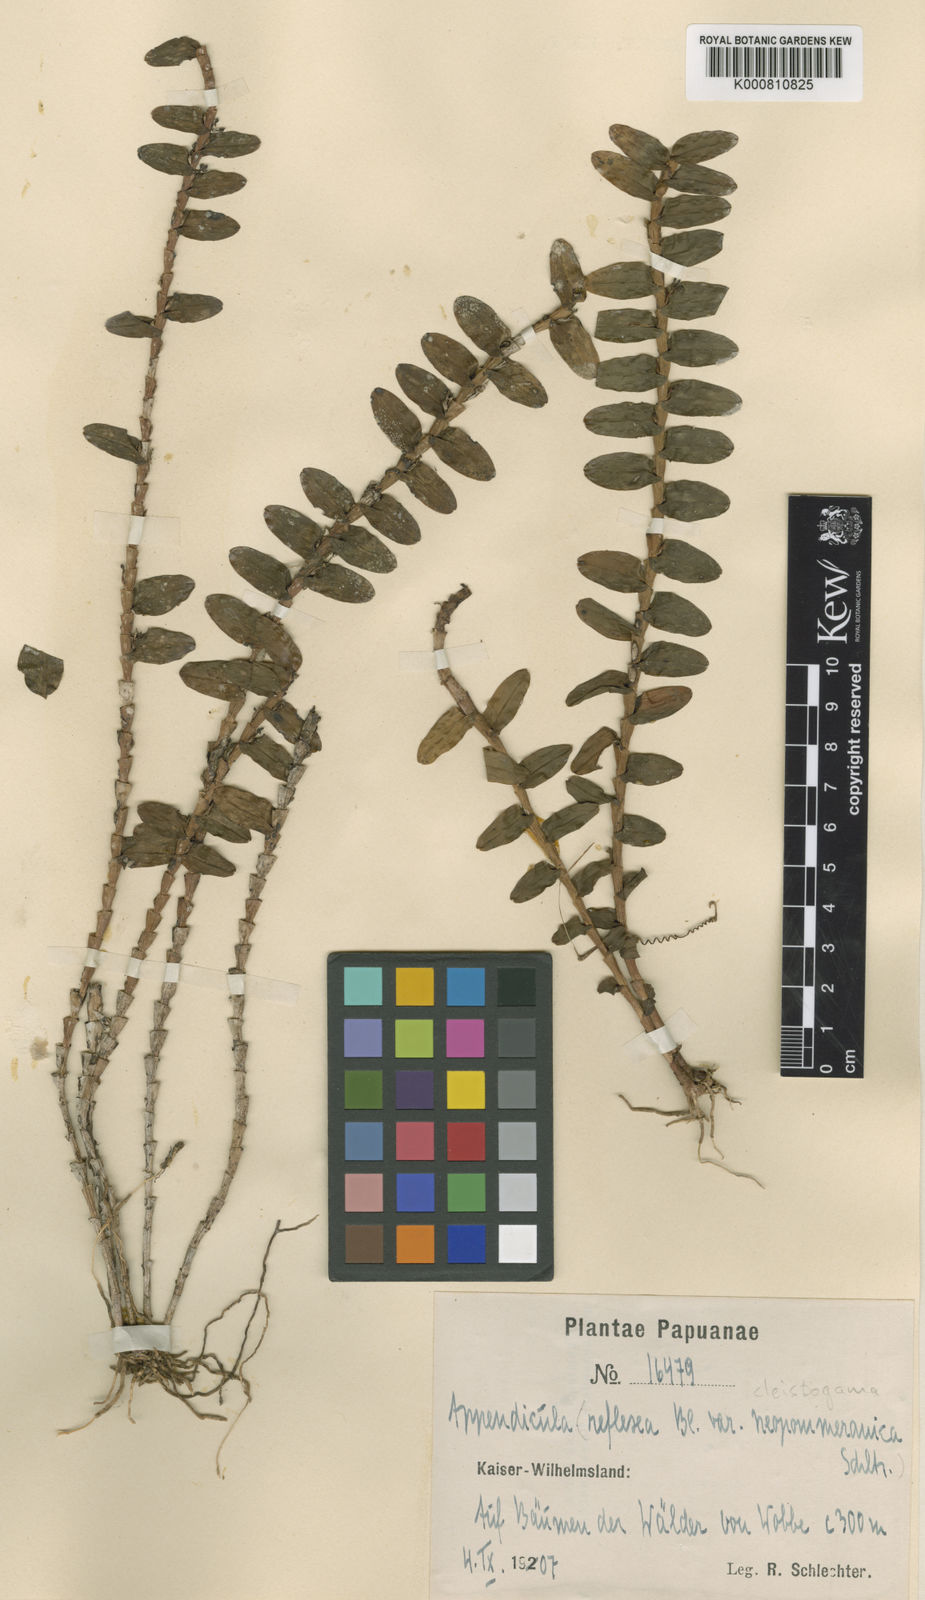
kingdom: Plantae
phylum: Tracheophyta
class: Liliopsida
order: Asparagales
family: Orchidaceae
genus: Appendicula
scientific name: Appendicula torricelliana
